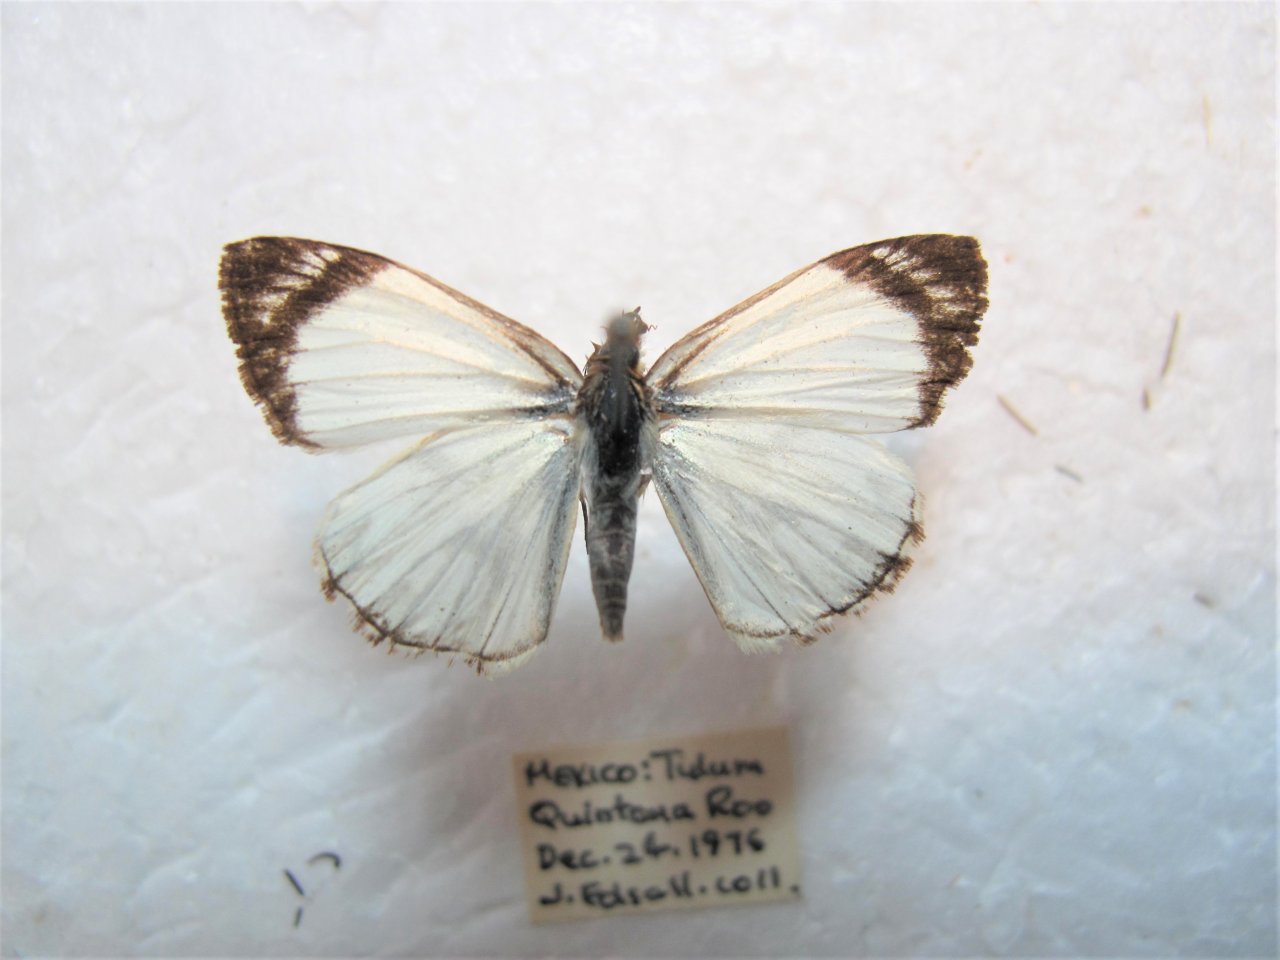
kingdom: Animalia
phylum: Arthropoda
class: Insecta
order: Lepidoptera
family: Hesperiidae
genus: Heliopetes
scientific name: Heliopetes alana
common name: Alana White-Skipper
